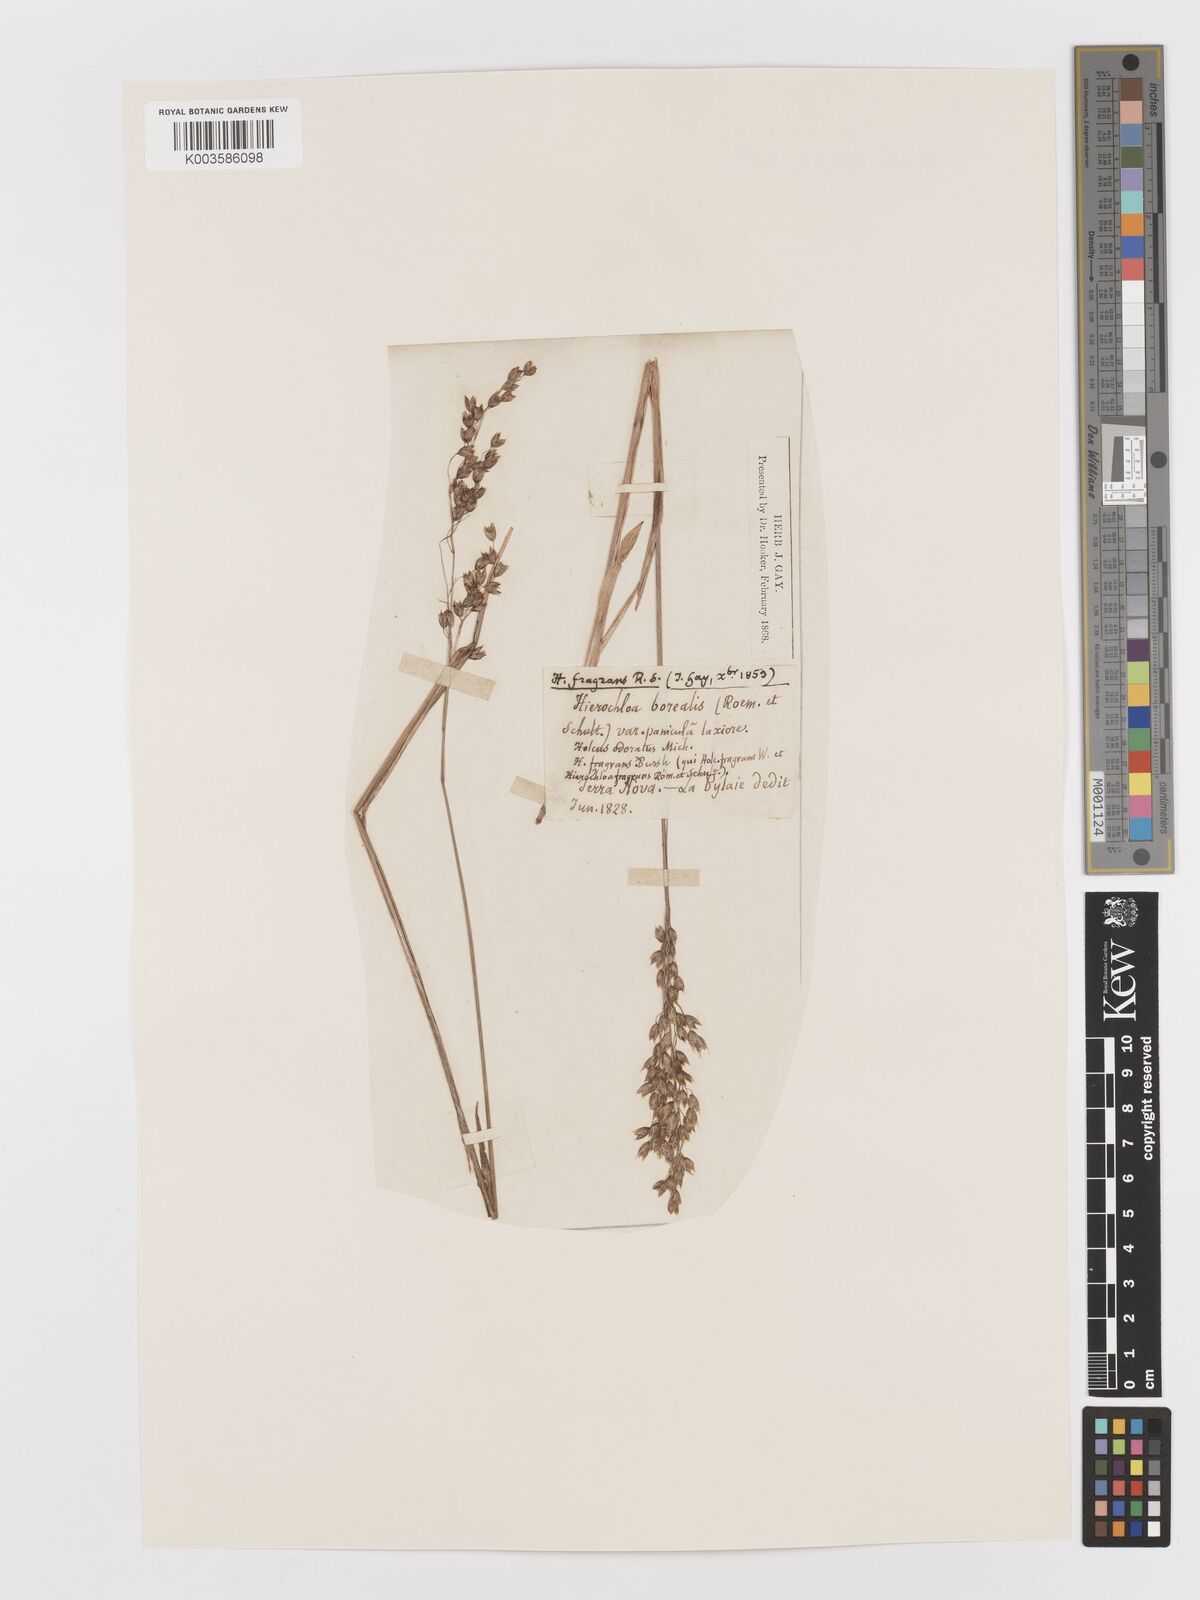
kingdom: Plantae
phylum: Tracheophyta
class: Liliopsida
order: Poales
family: Poaceae
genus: Anthoxanthum
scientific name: Anthoxanthum nitens
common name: Holy grass
